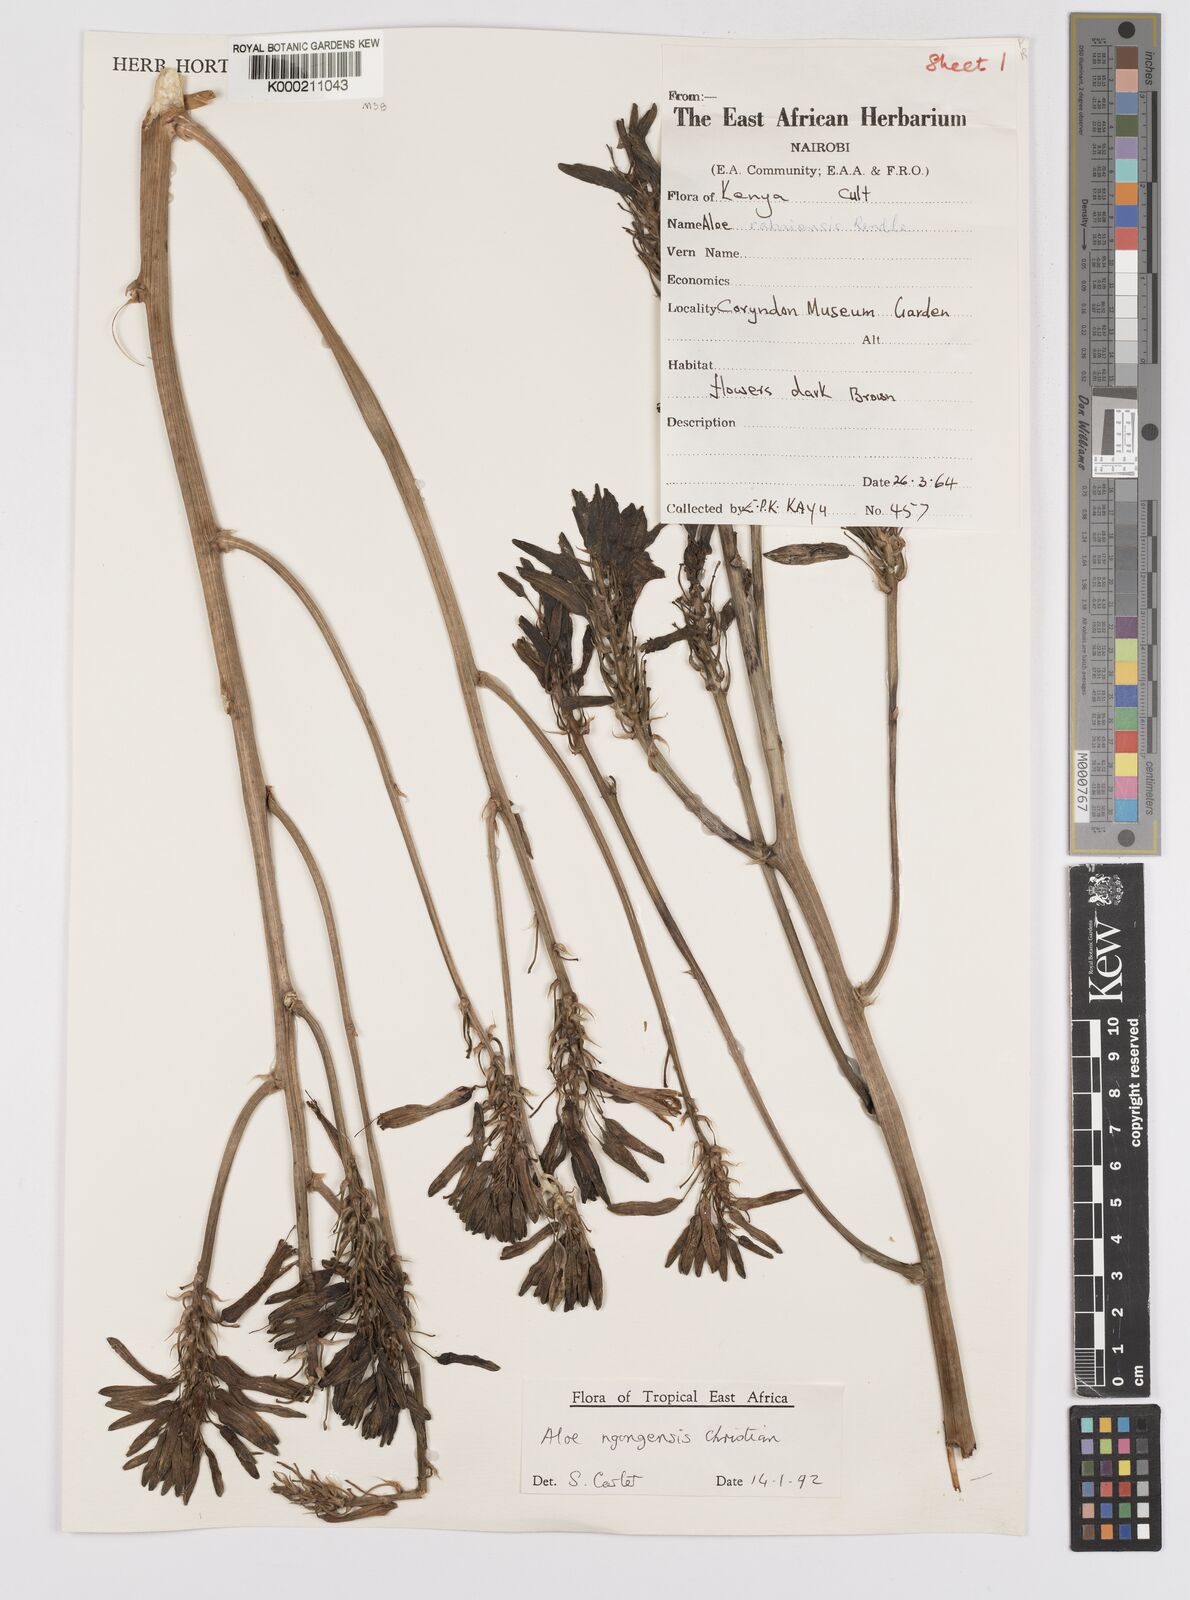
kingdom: Plantae
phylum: Tracheophyta
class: Liliopsida
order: Asparagales
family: Asphodelaceae
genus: Aloe
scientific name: Aloe ngongensis
